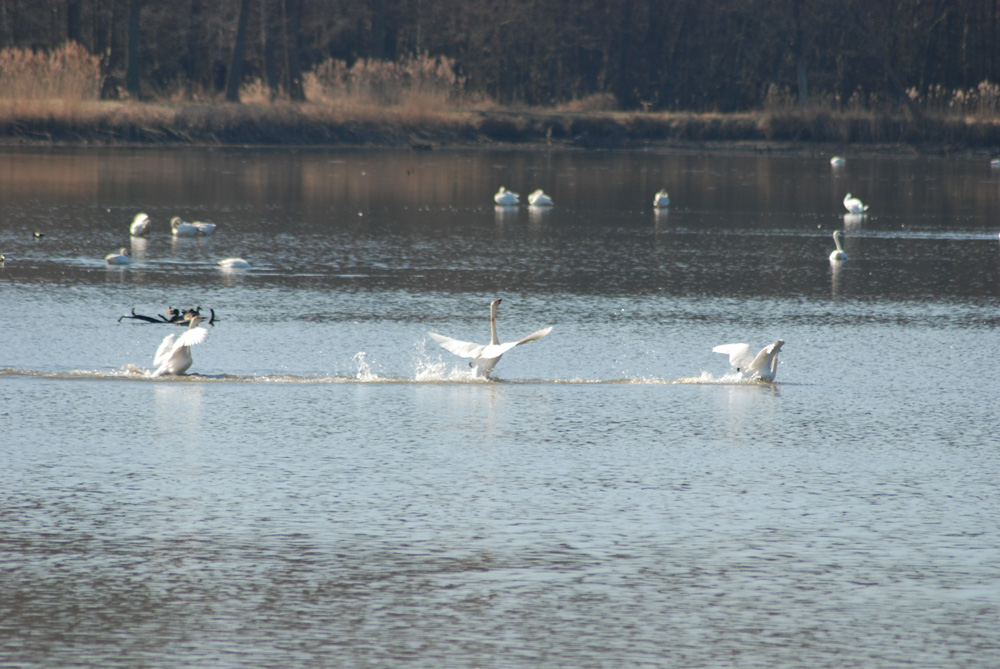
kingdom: Animalia
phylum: Chordata
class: Aves
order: Anseriformes
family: Anatidae
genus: Cygnus
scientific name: Cygnus cygnus
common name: Whooper swan
